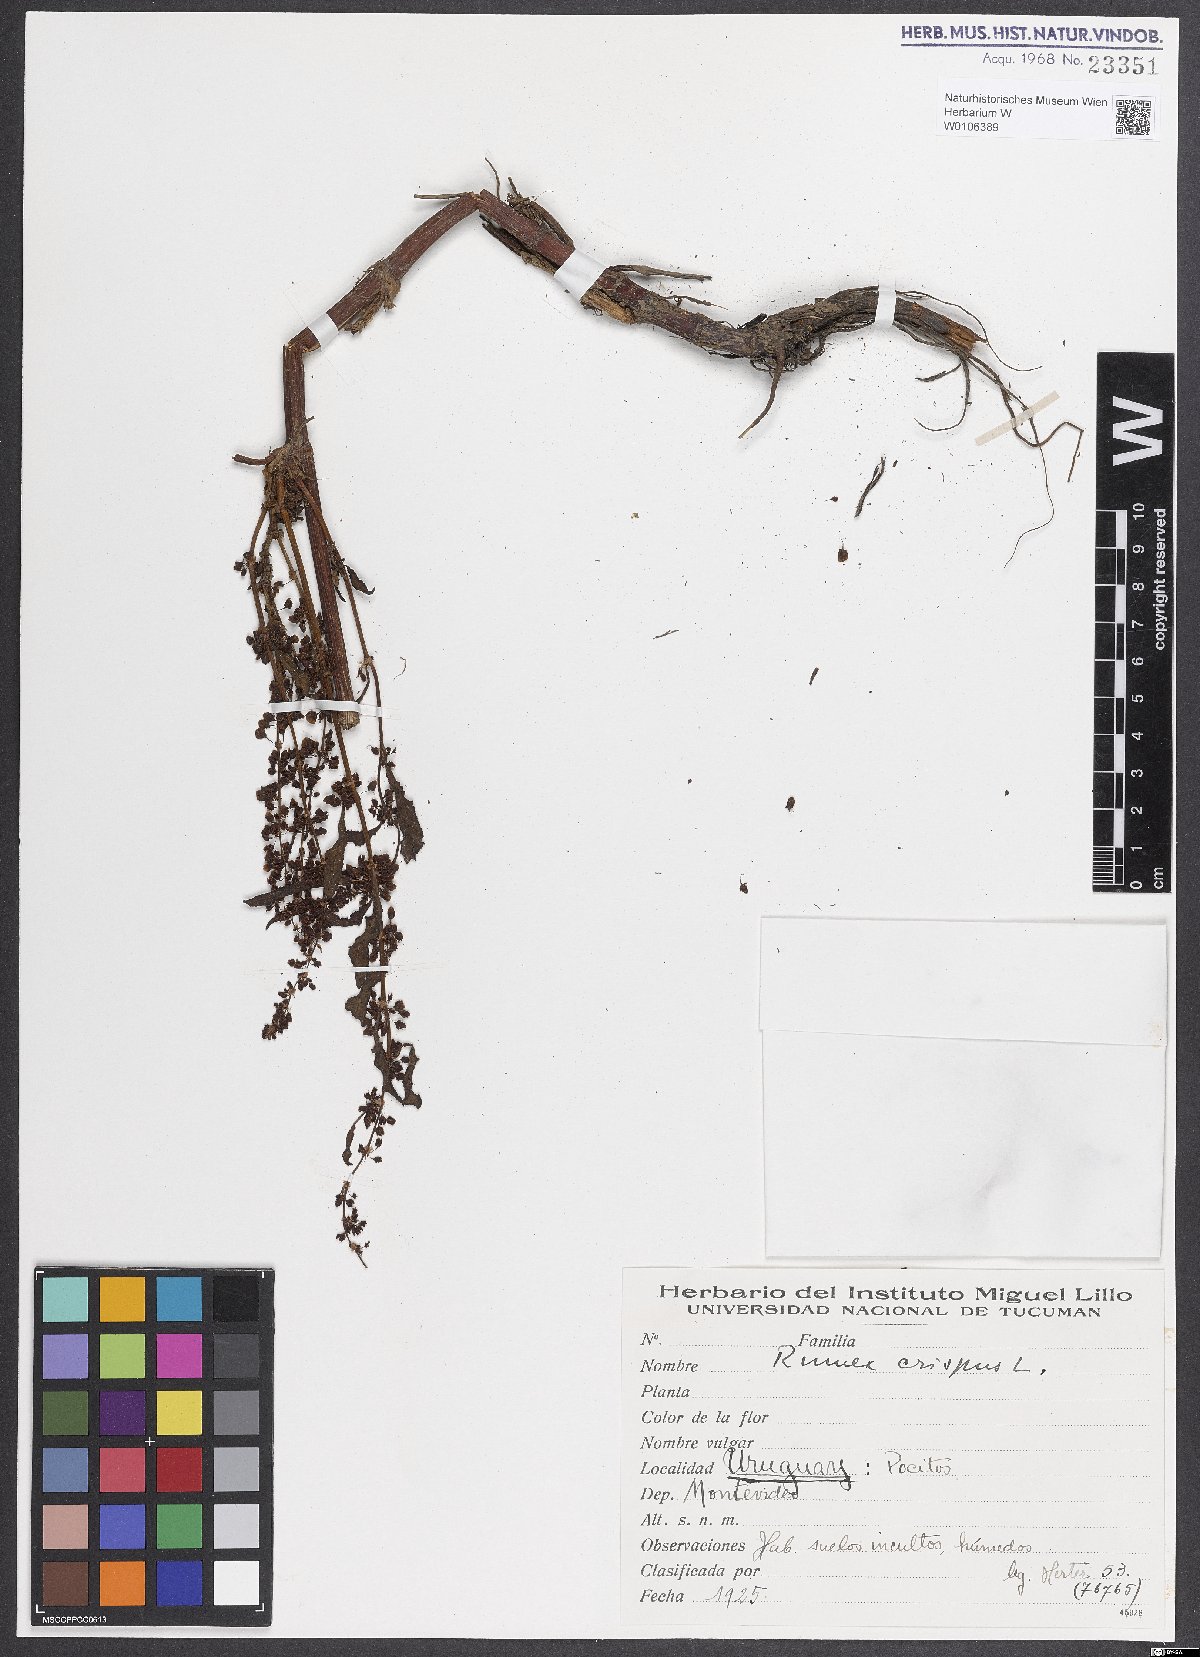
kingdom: Plantae
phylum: Tracheophyta
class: Magnoliopsida
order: Caryophyllales
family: Polygonaceae
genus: Rumex
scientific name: Rumex crispus
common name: Curled dock
